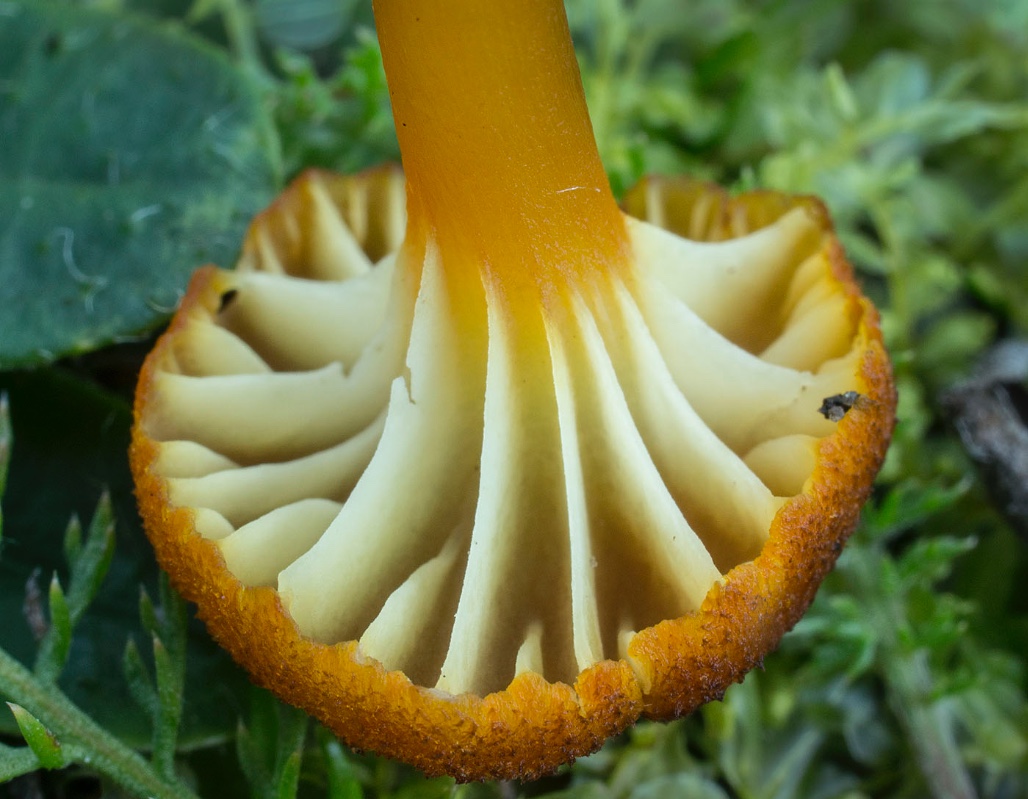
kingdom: Fungi
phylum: Basidiomycota
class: Agaricomycetes
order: Agaricales
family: Hygrophoraceae
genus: Hygrocybe
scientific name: Hygrocybe turunda
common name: sortskællet vokshat
